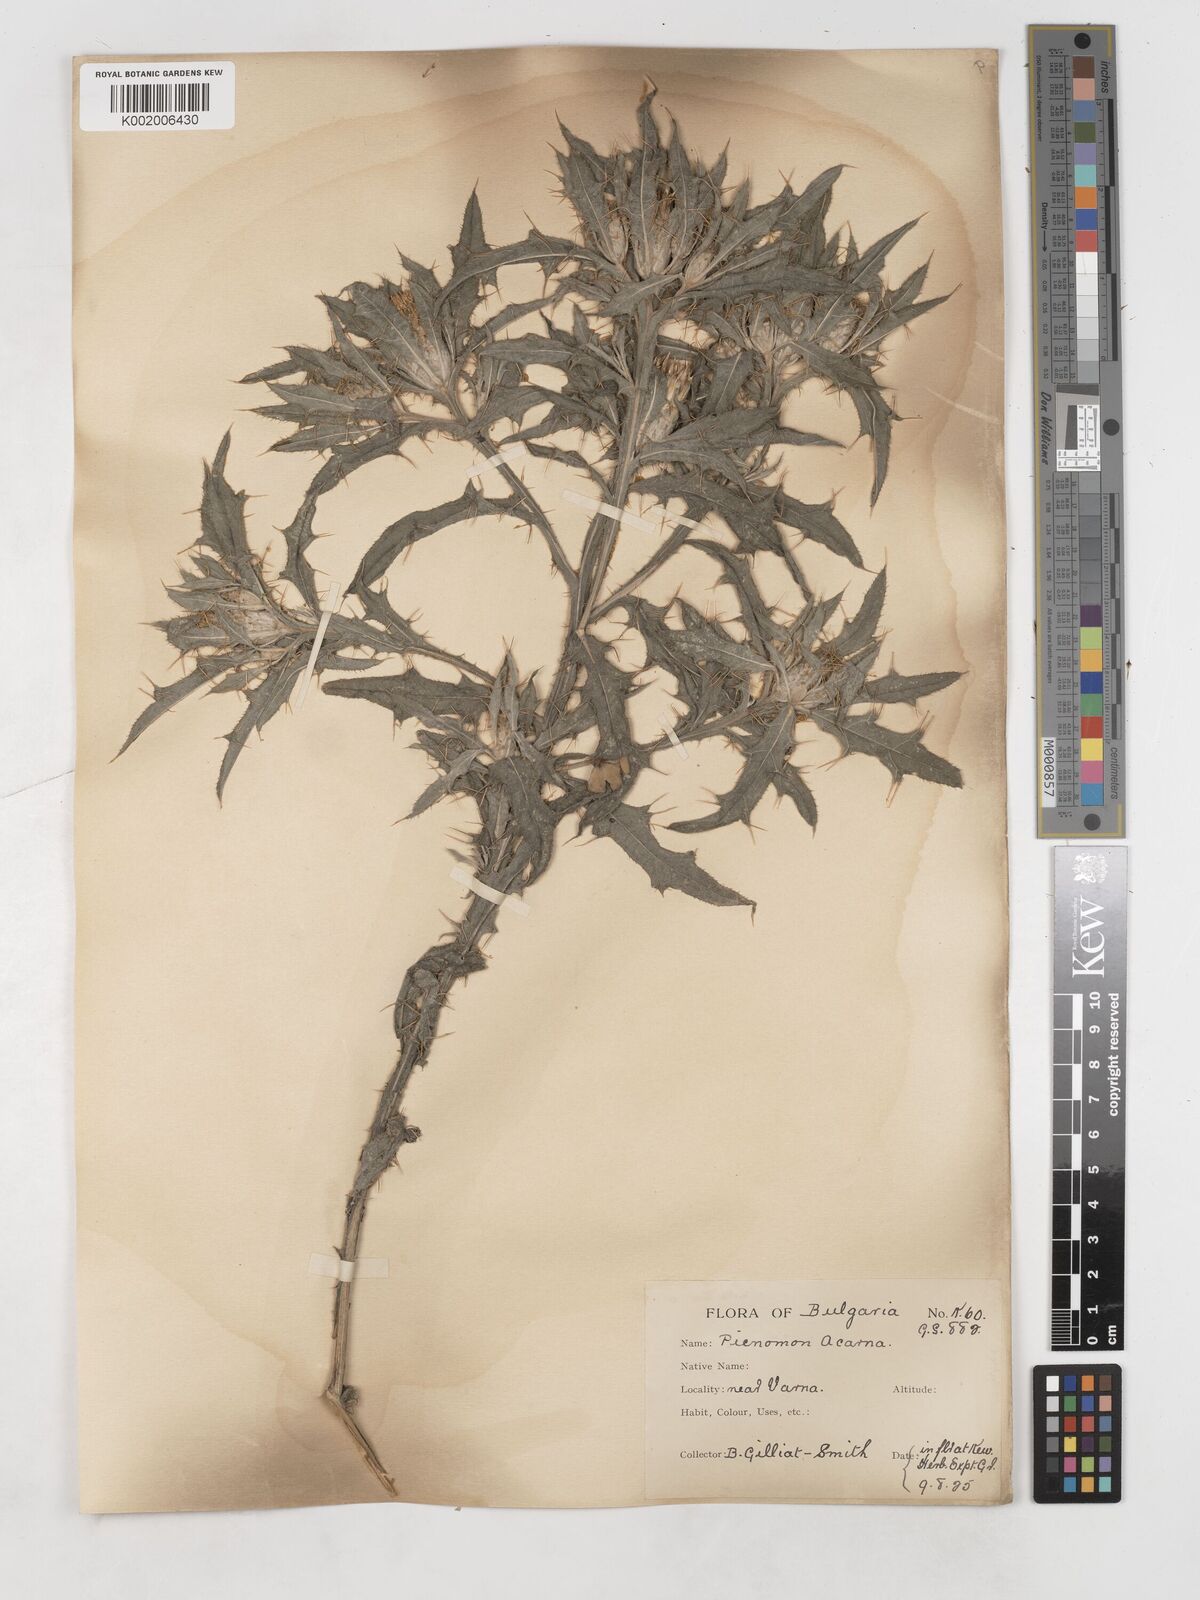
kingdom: Plantae
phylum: Tracheophyta
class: Magnoliopsida
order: Asterales
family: Asteraceae
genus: Picnomon
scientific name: Picnomon acarna
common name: Soldier thistle
